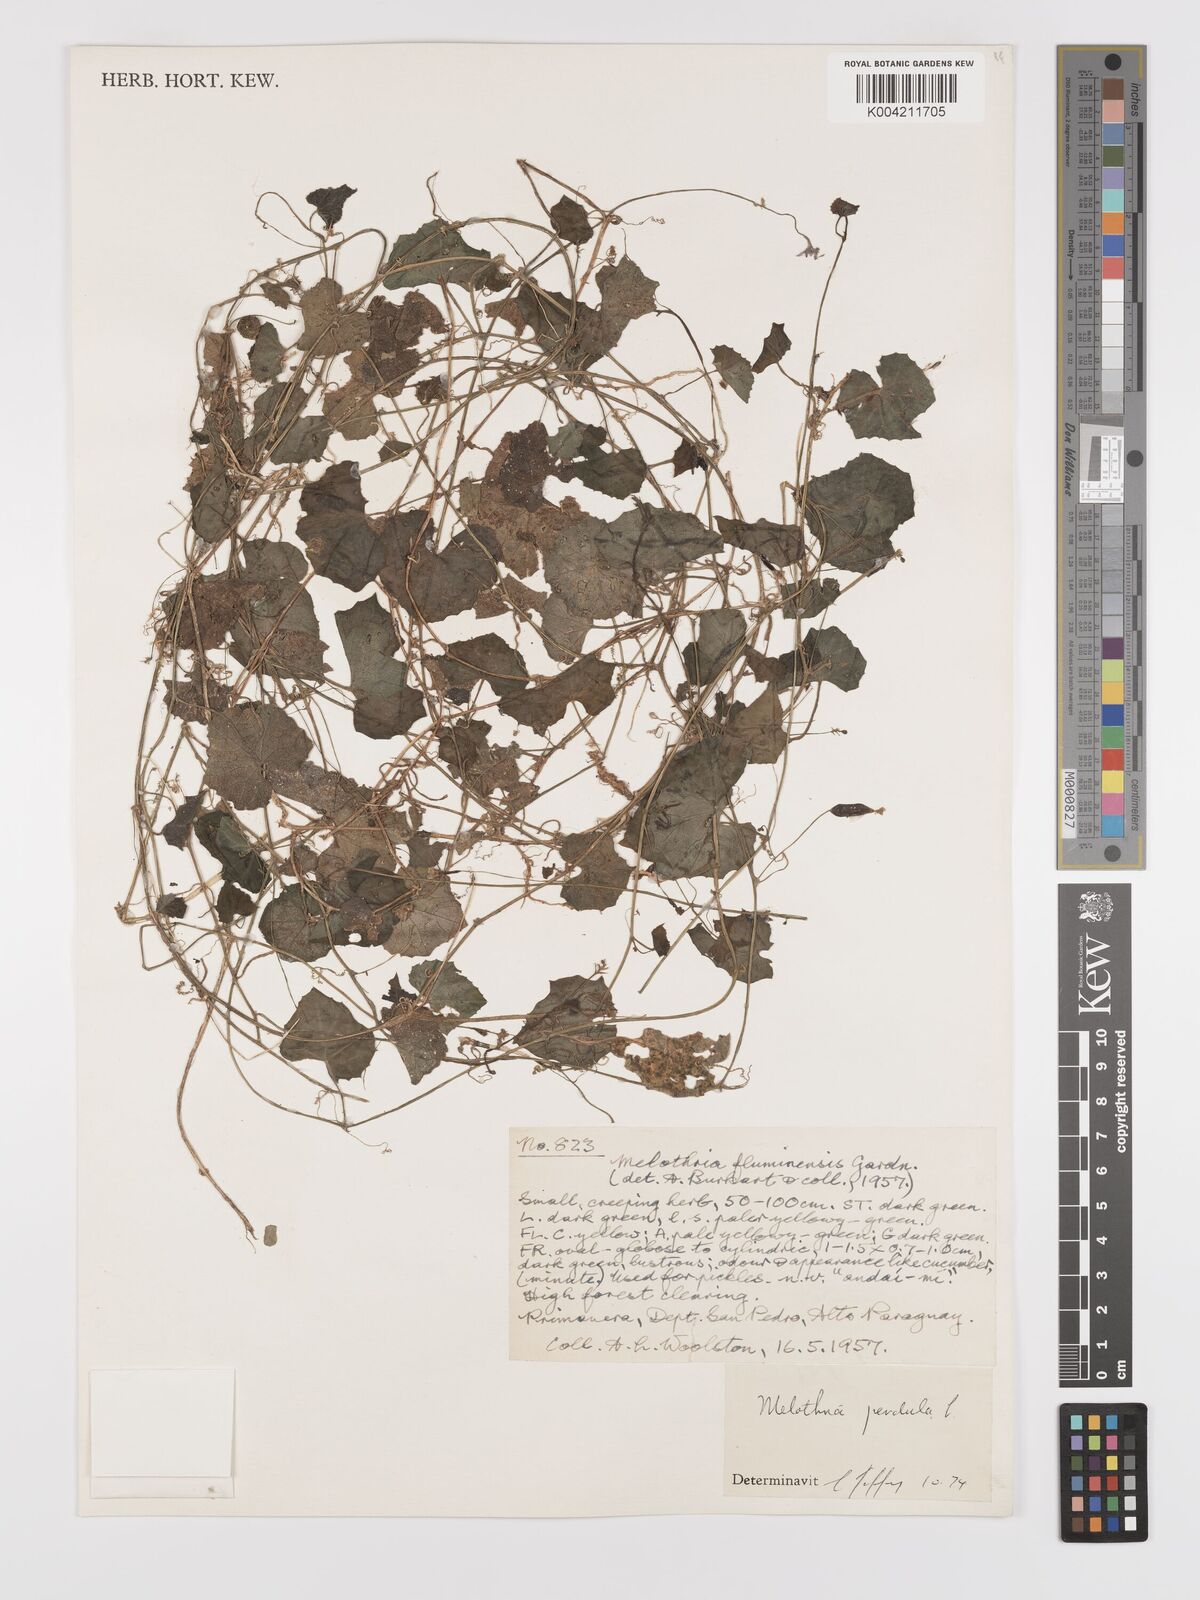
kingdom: Plantae
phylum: Tracheophyta
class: Magnoliopsida
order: Cucurbitales
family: Cucurbitaceae
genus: Melothria
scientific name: Melothria
